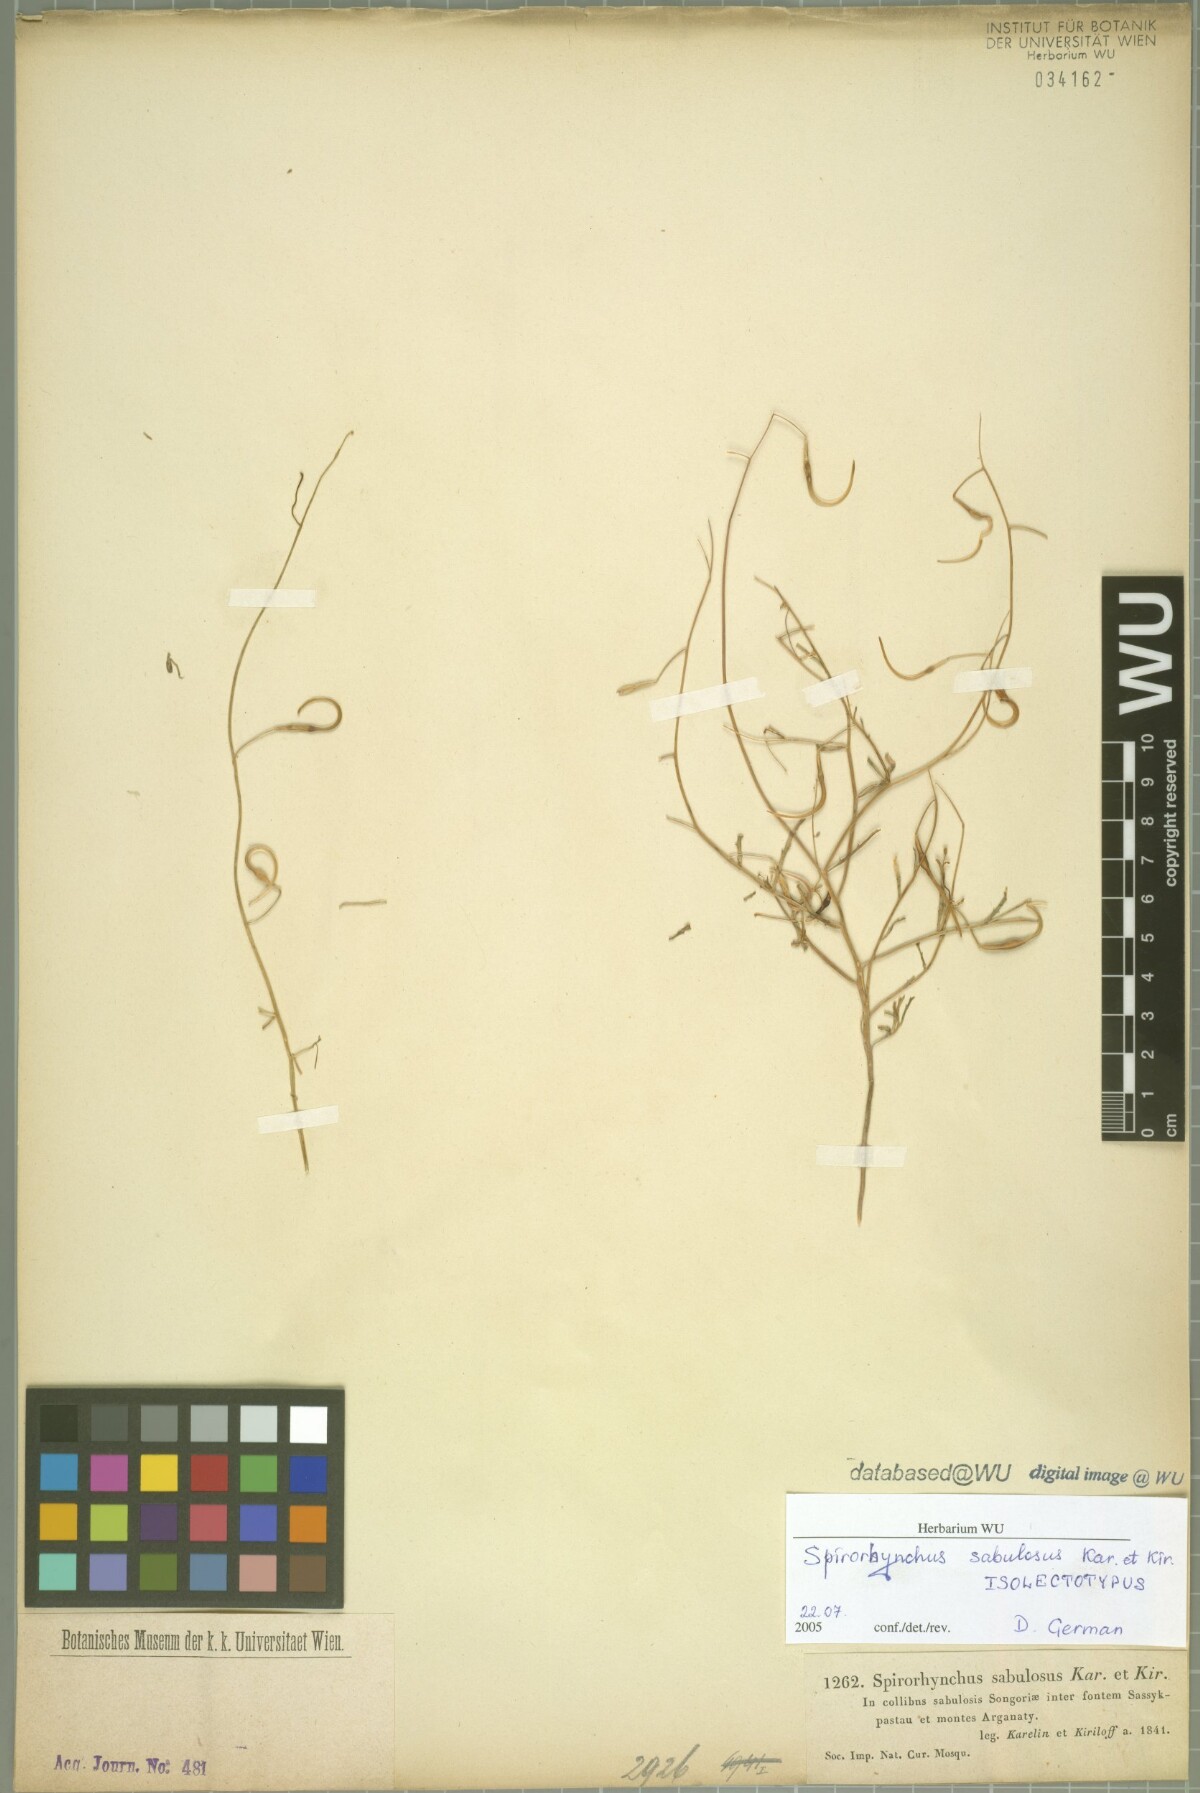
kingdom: Plantae
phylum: Tracheophyta
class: Magnoliopsida
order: Brassicales
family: Brassicaceae
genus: Goldbachia
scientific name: Goldbachia sabulosa
